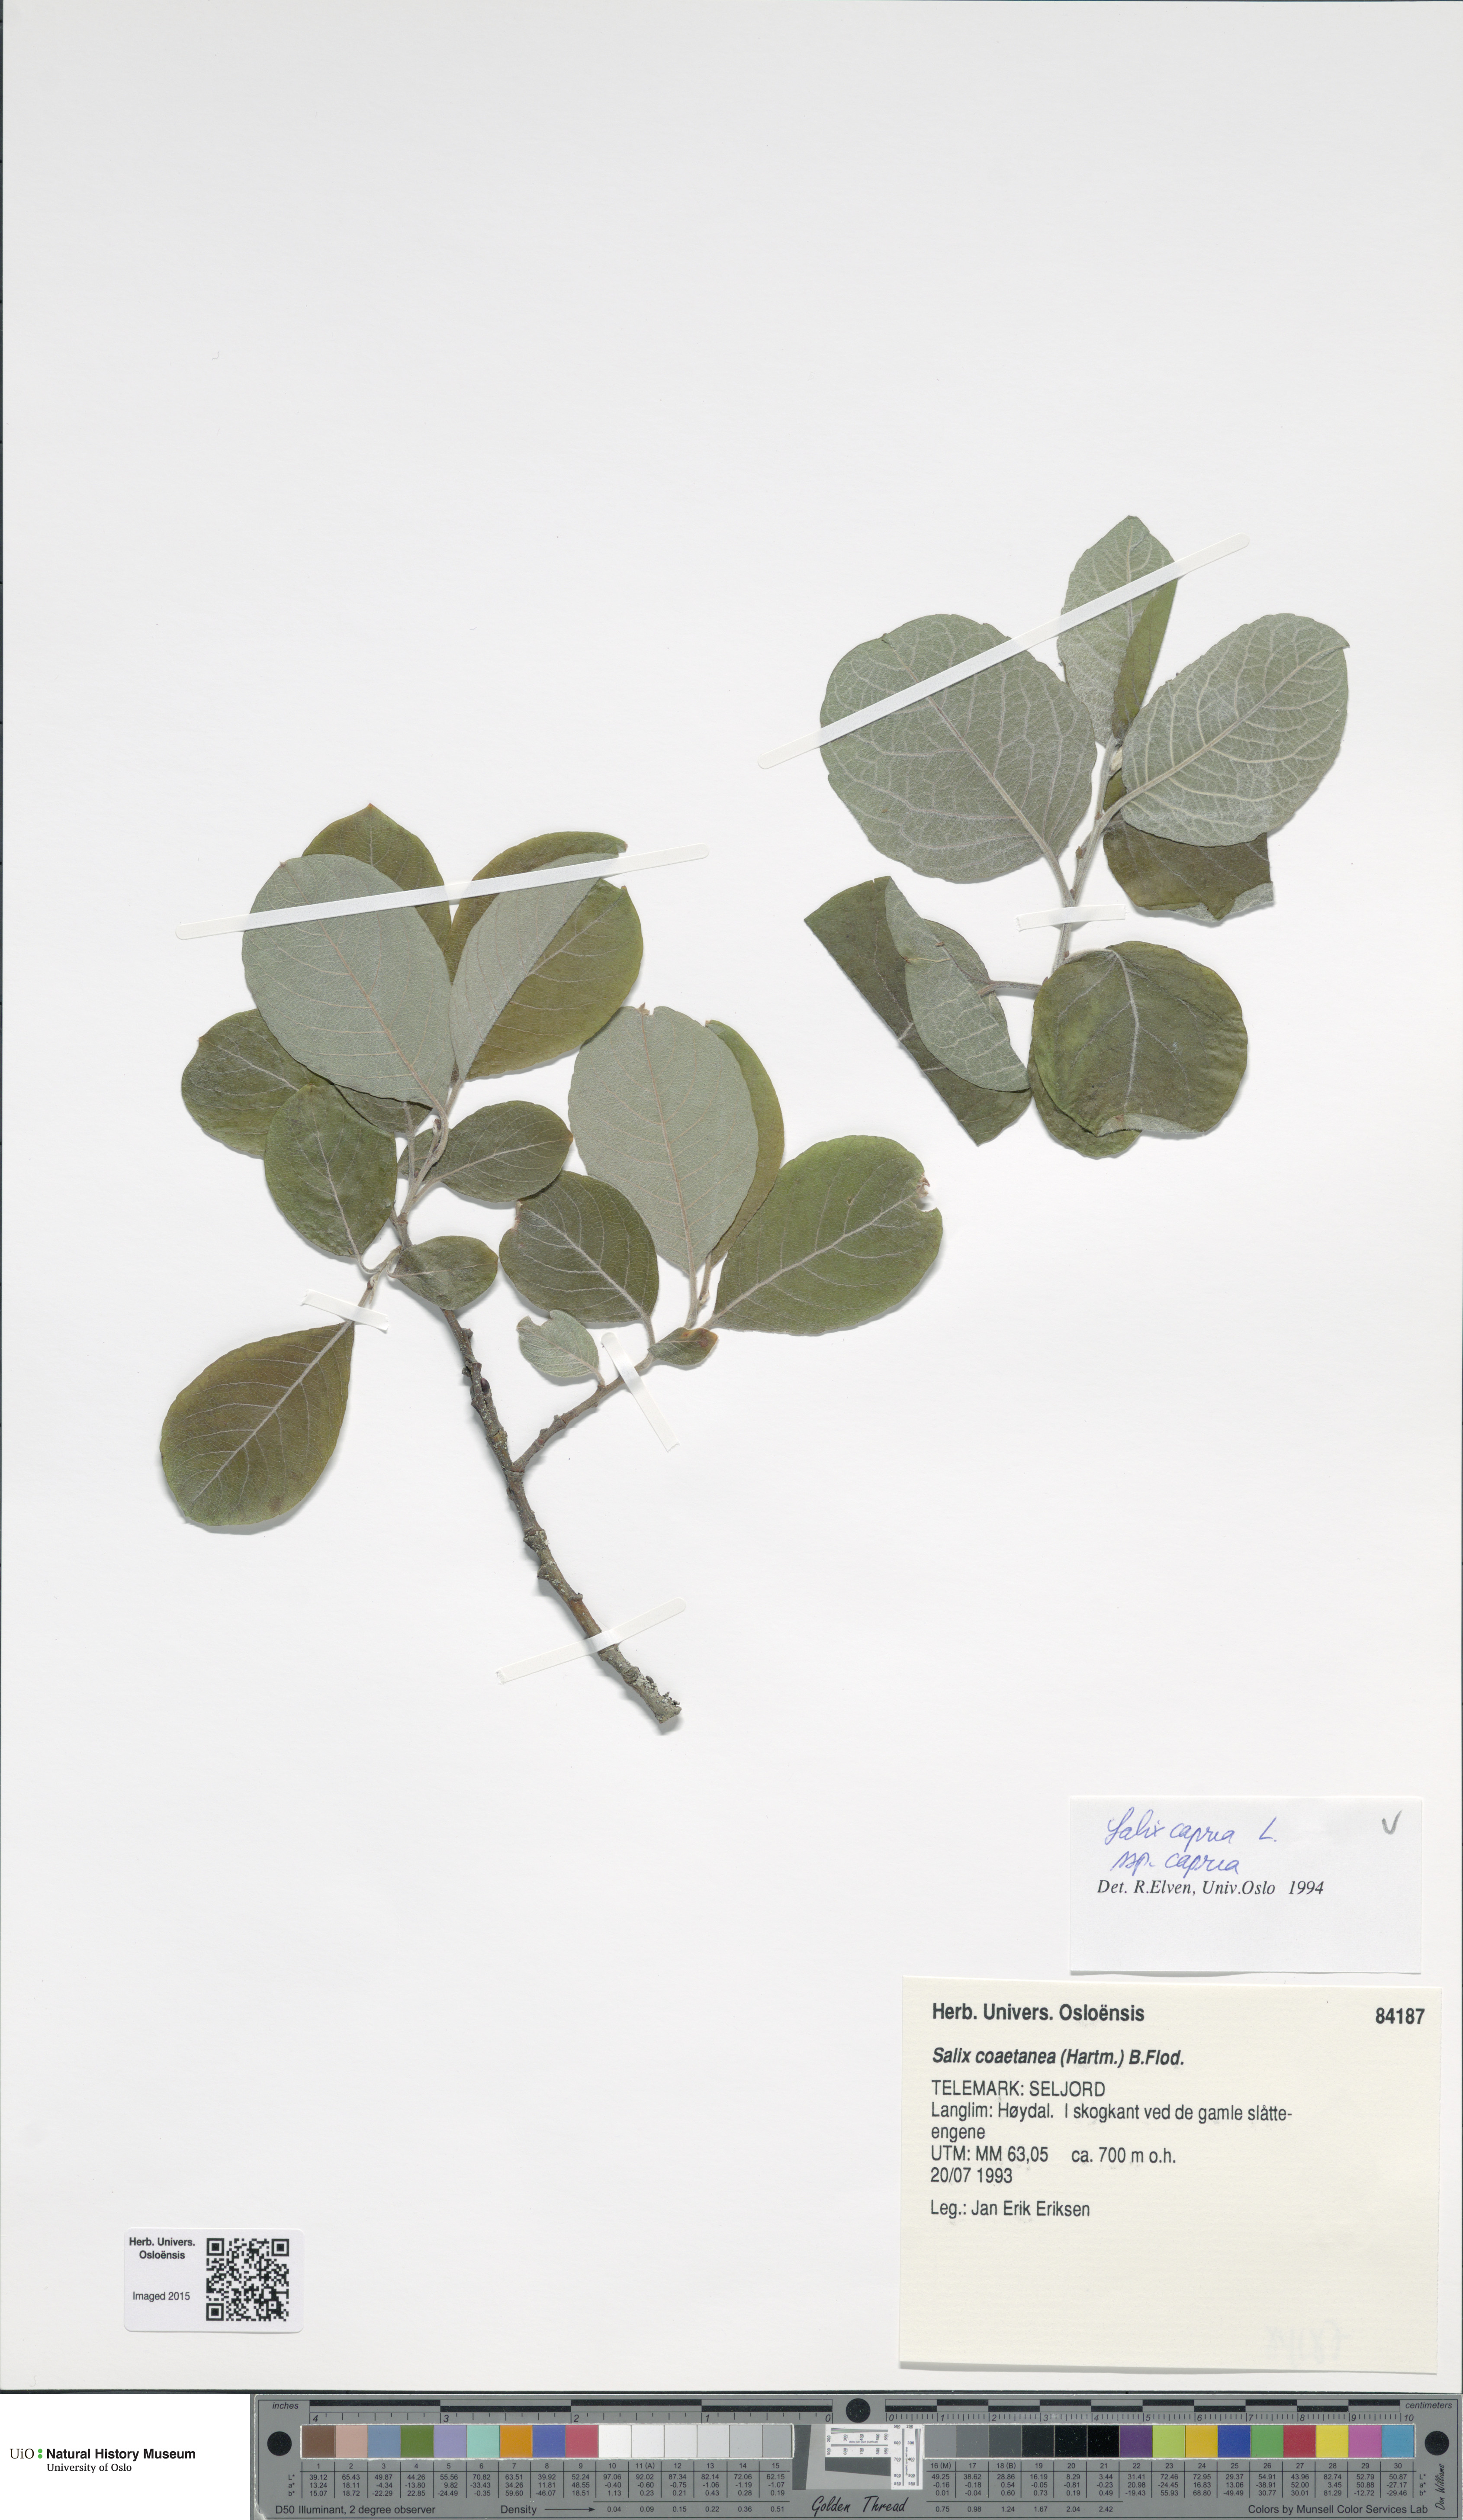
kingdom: Plantae
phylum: Tracheophyta
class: Magnoliopsida
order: Malpighiales
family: Salicaceae
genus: Salix
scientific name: Salix caprea
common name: Goat willow
